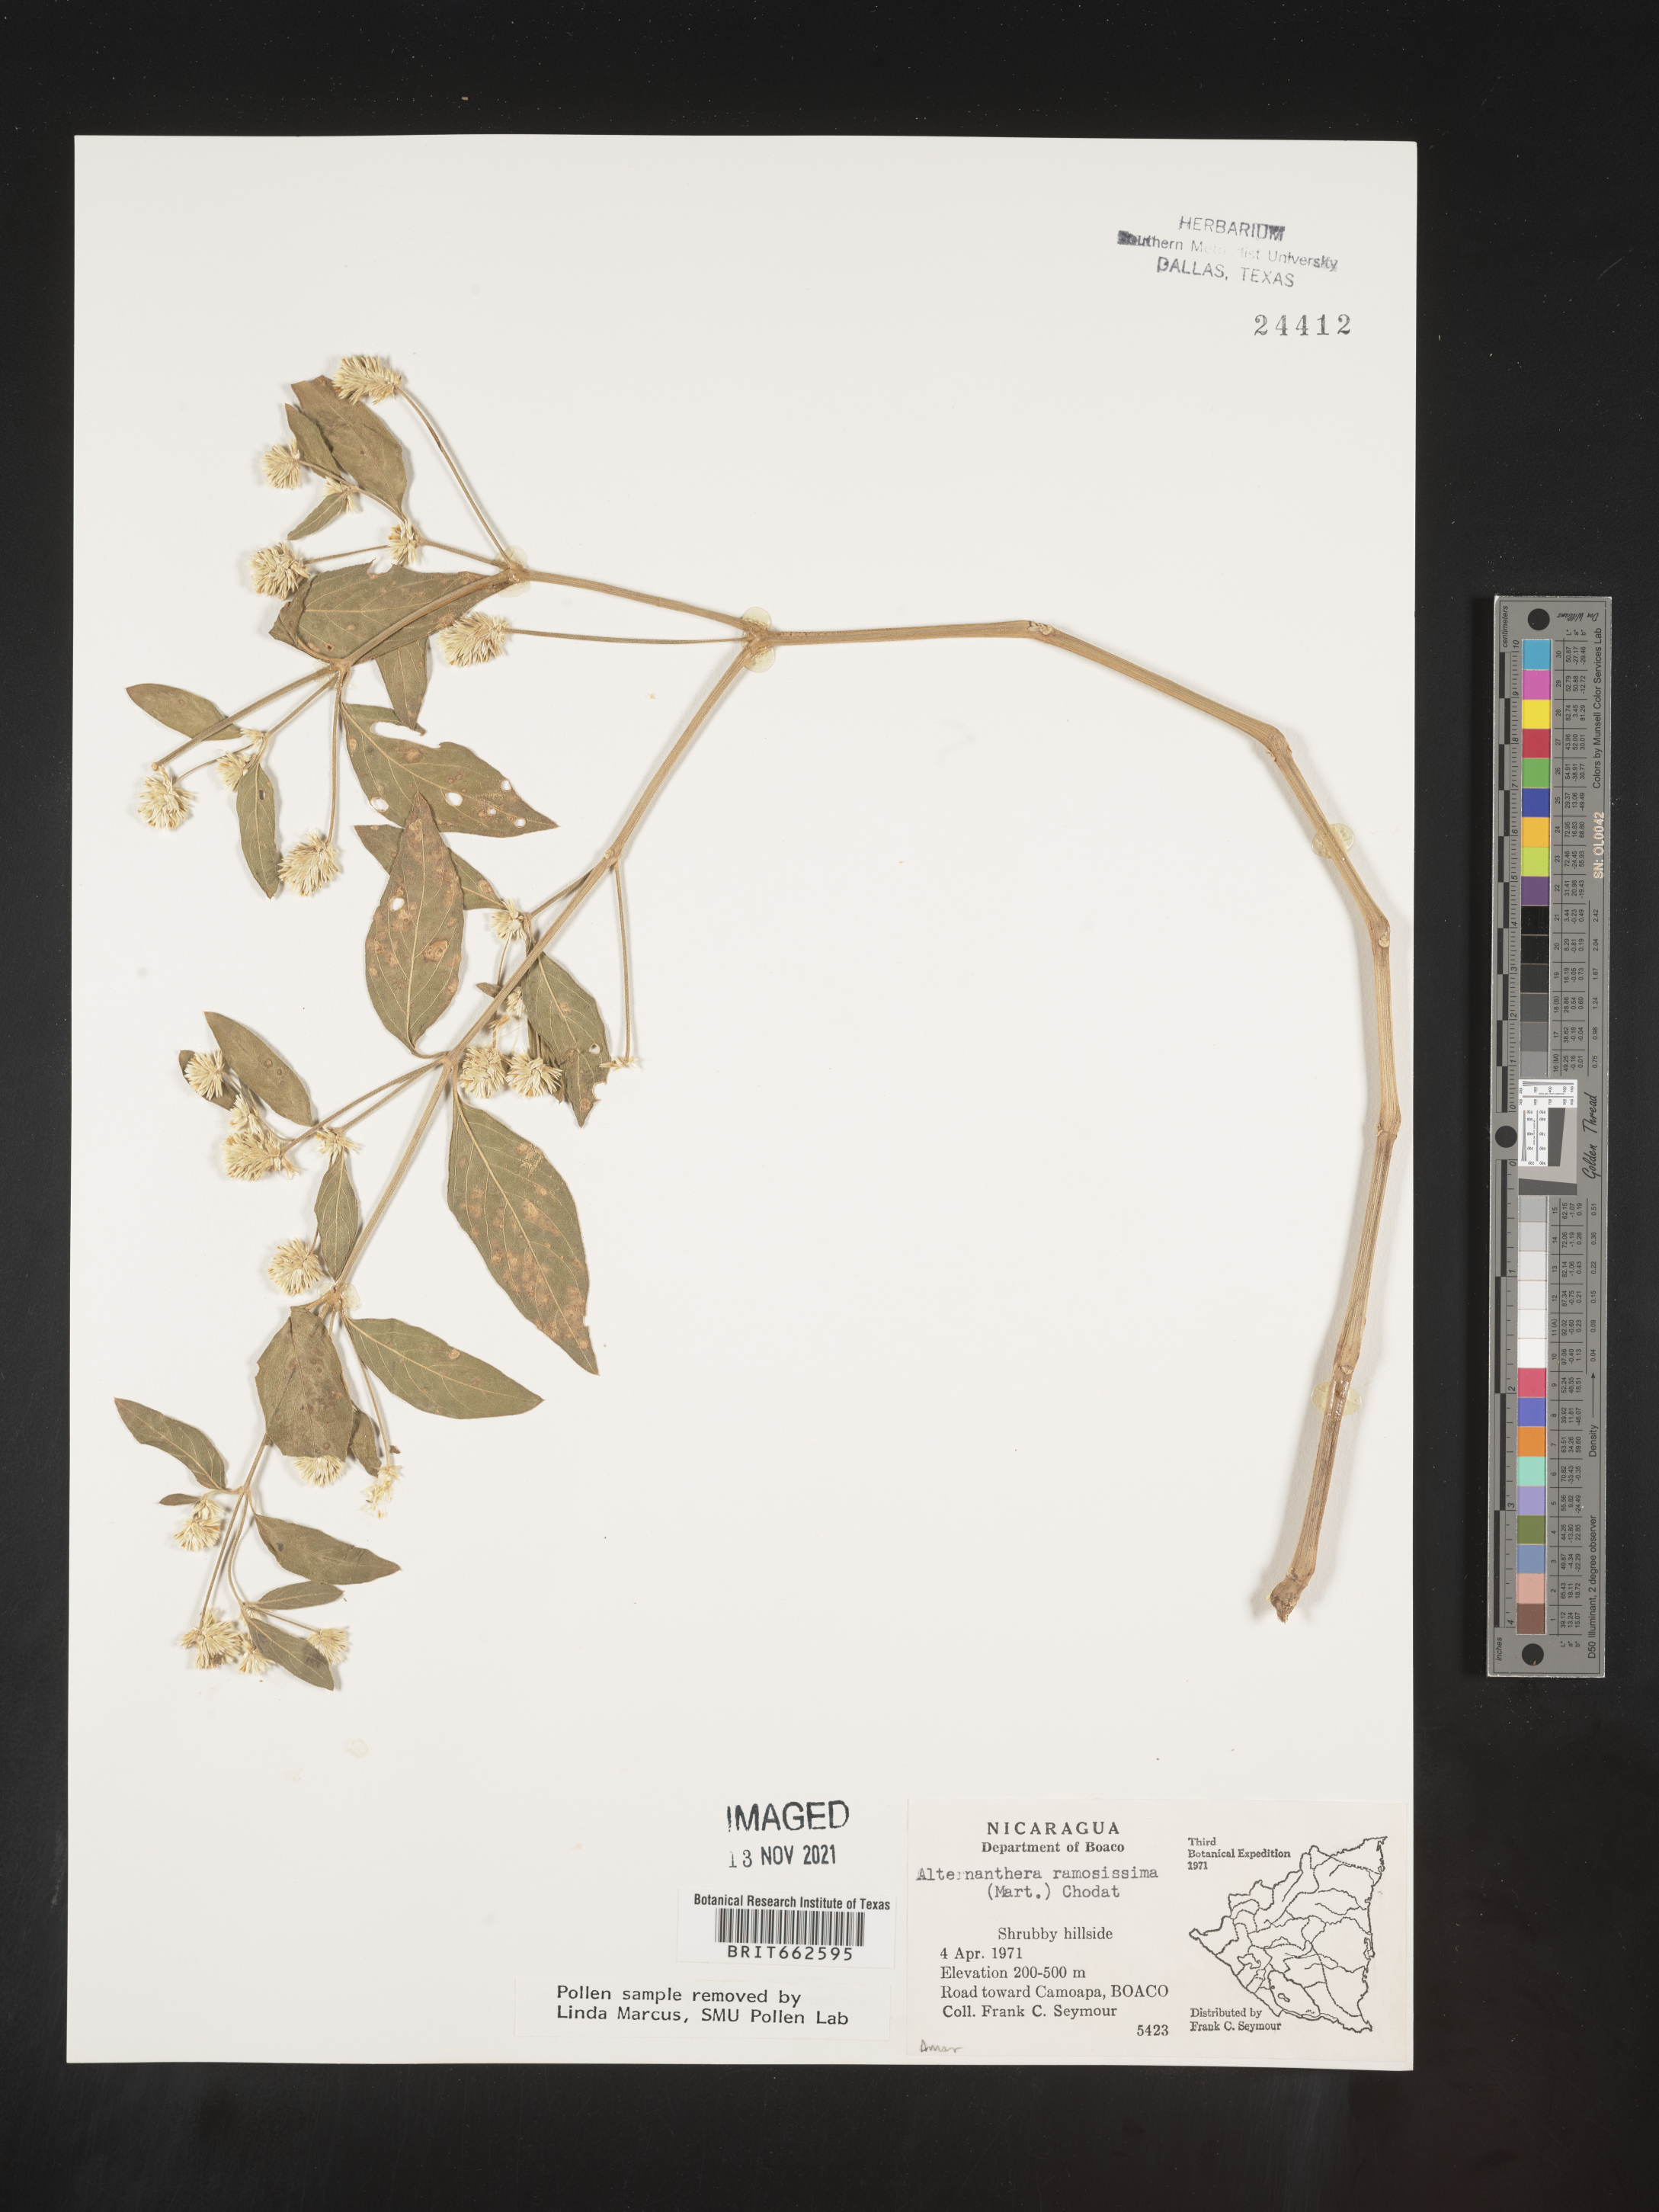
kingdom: Plantae
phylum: Tracheophyta
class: Magnoliopsida
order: Caryophyllales
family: Amaranthaceae
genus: Alternanthera
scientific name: Alternanthera
